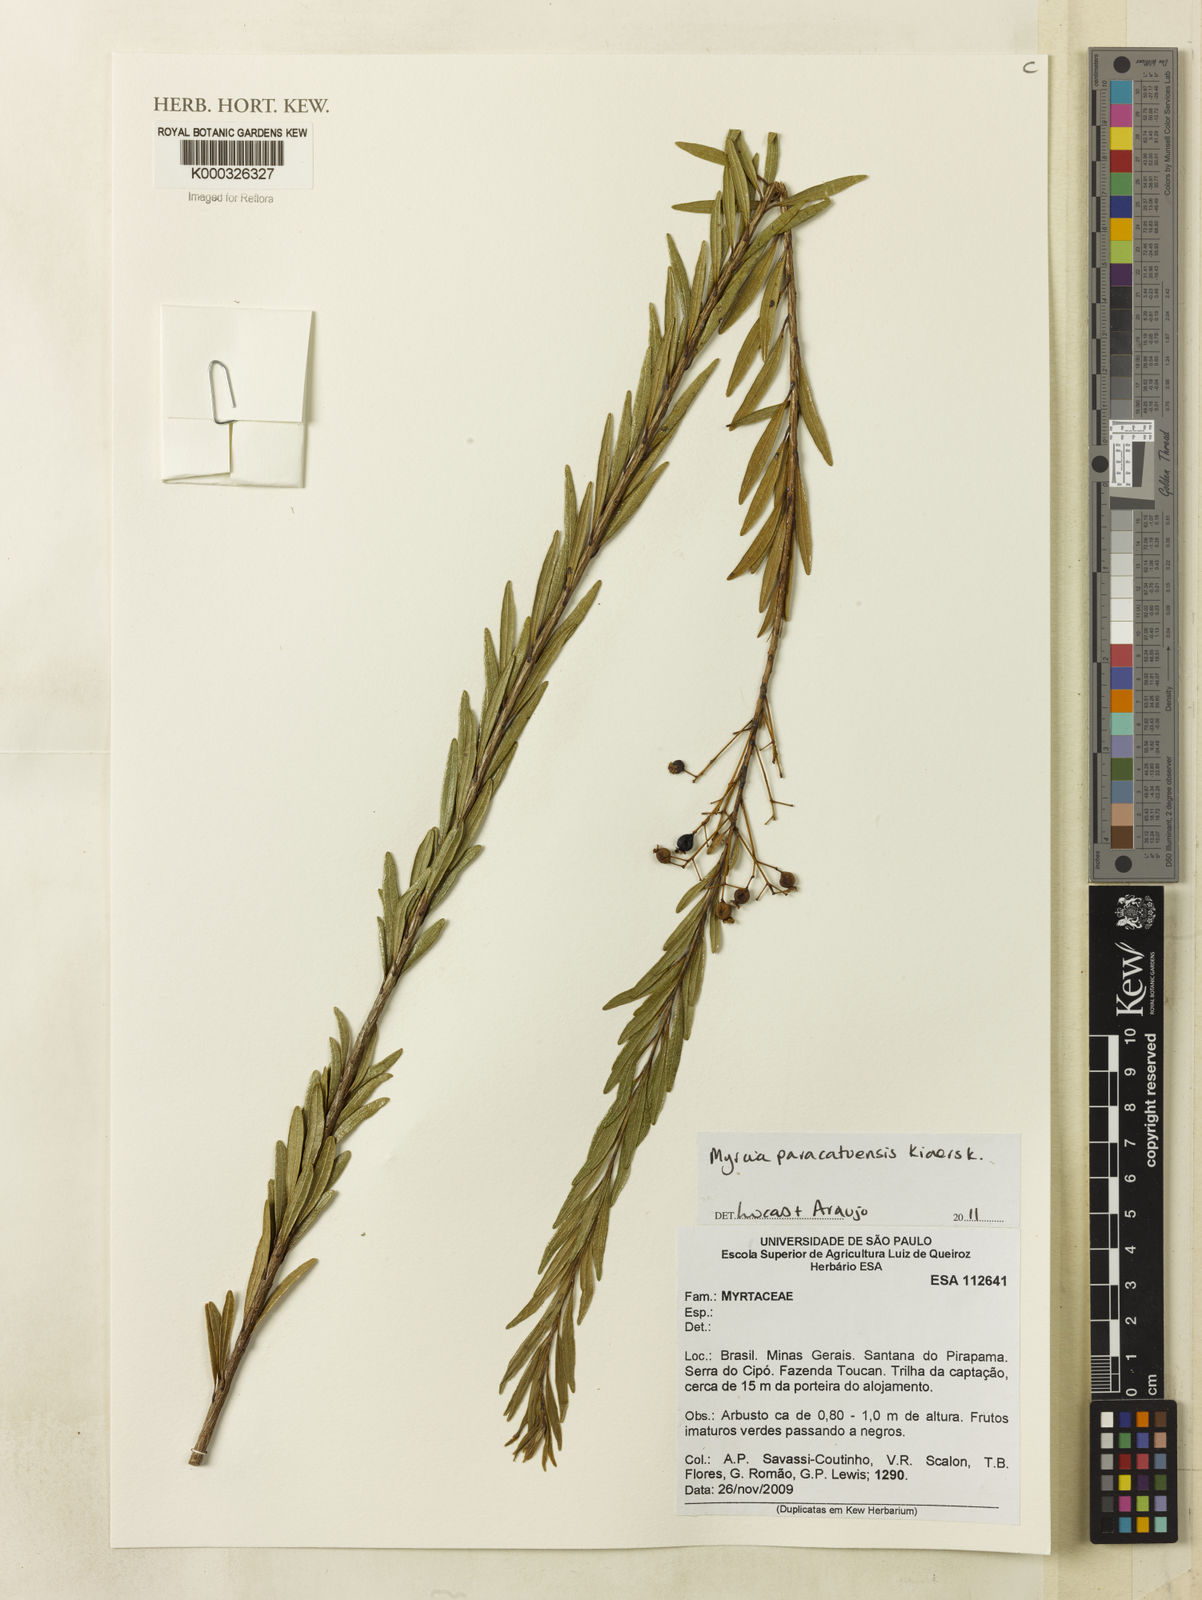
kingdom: Plantae
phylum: Tracheophyta
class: Magnoliopsida
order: Myrtales
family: Myrtaceae
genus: Myrcia
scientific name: Myrcia guianensis
